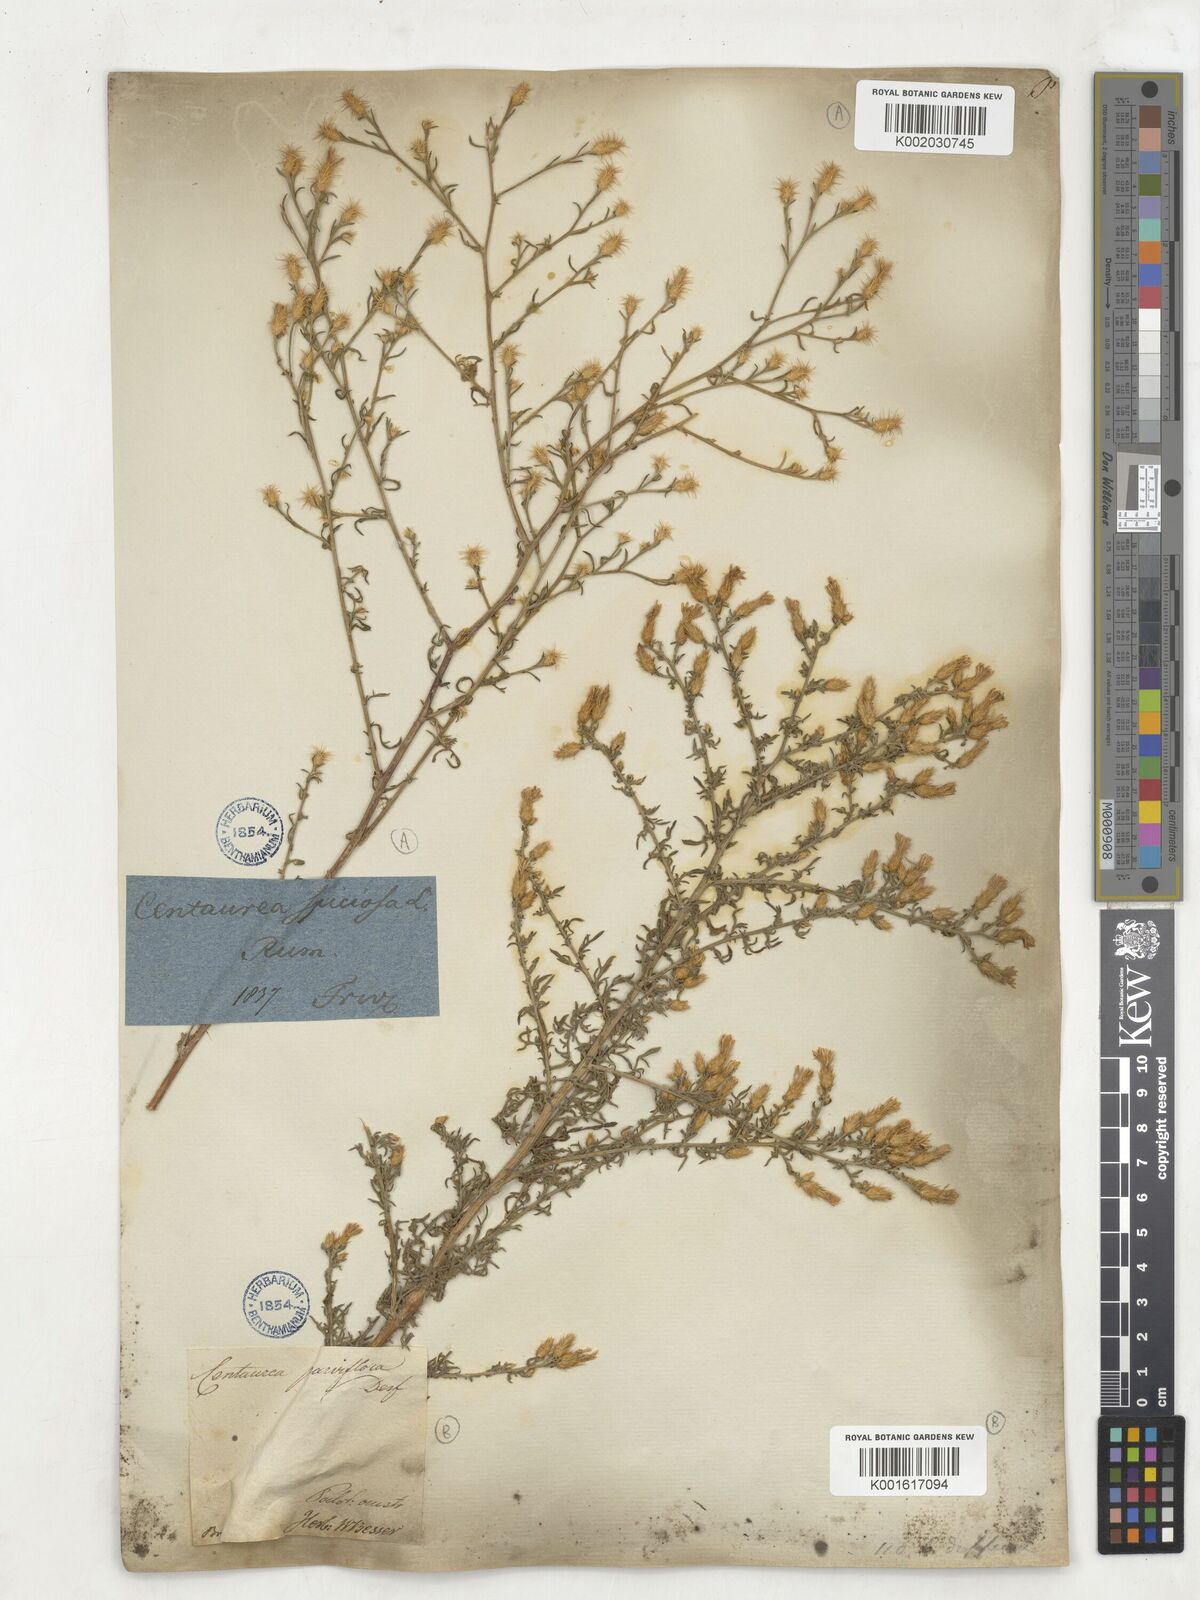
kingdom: Plantae
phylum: Tracheophyta
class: Magnoliopsida
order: Asterales
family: Asteraceae
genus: Centaurea
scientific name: Centaurea spinosa
